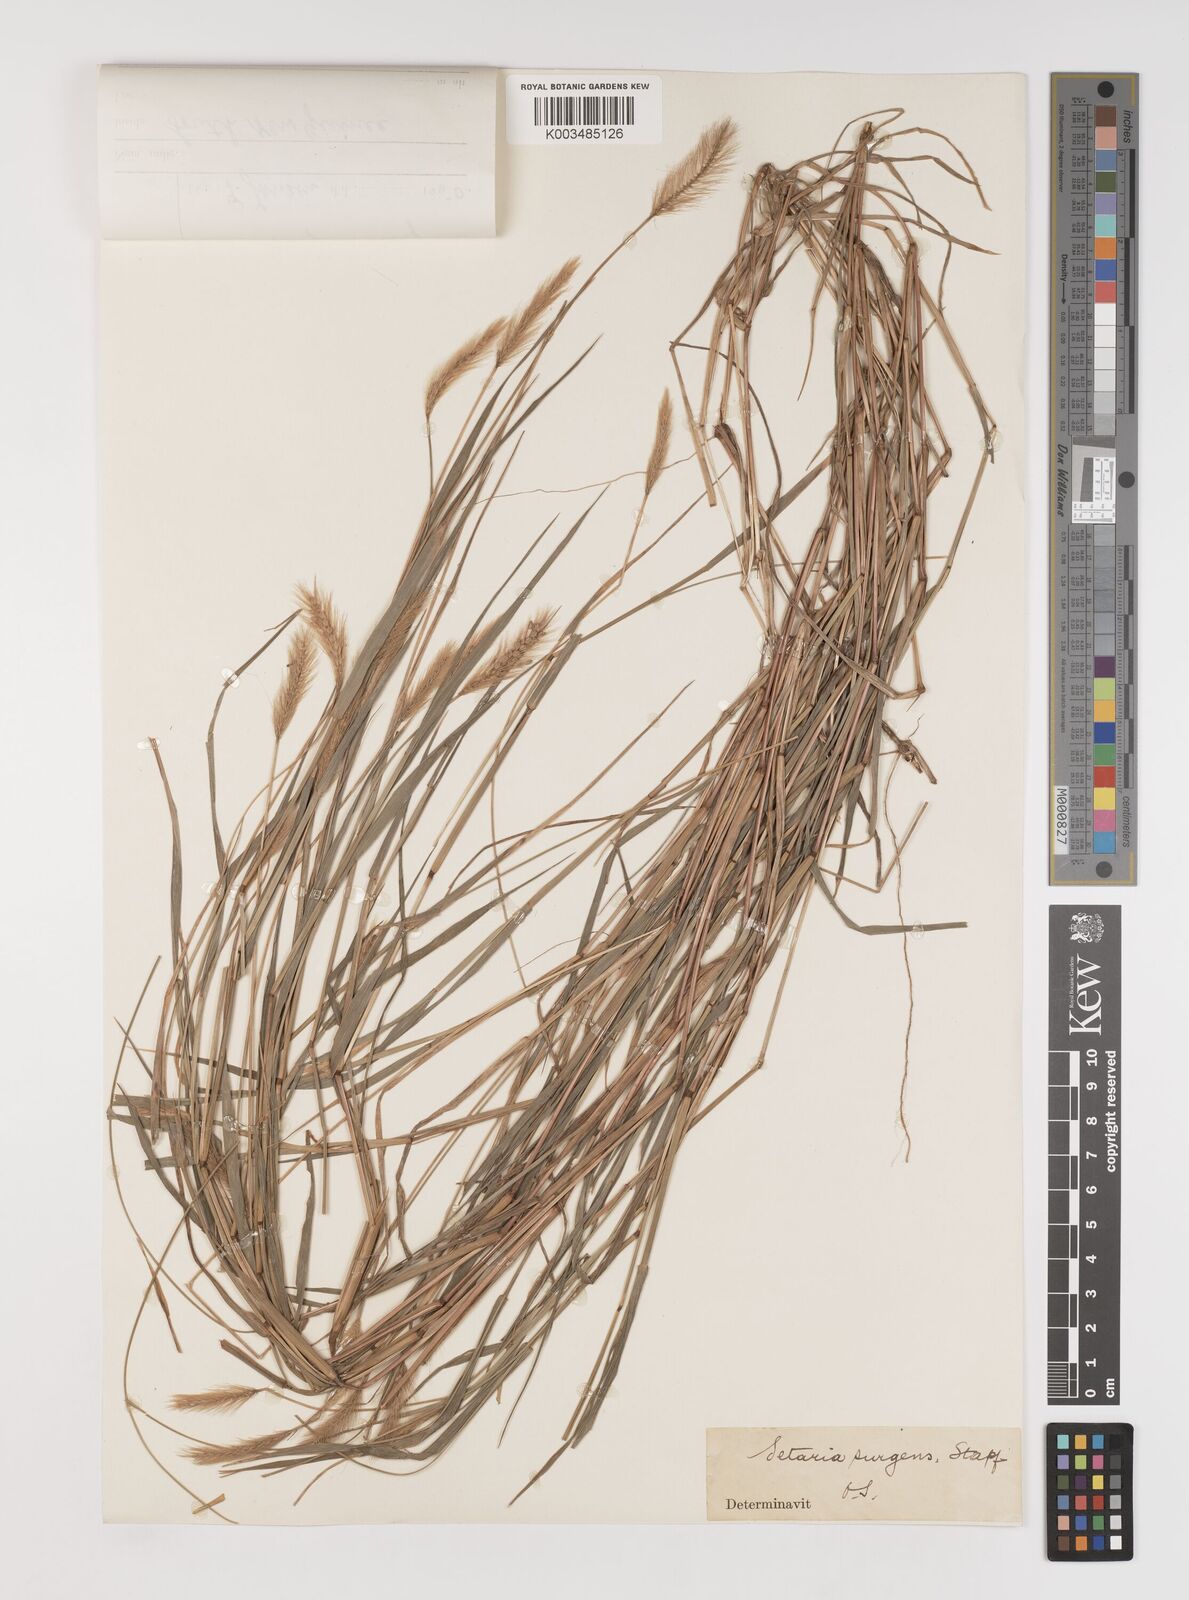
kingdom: Plantae
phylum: Tracheophyta
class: Liliopsida
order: Poales
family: Poaceae
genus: Setaria
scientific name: Setaria apiculata
